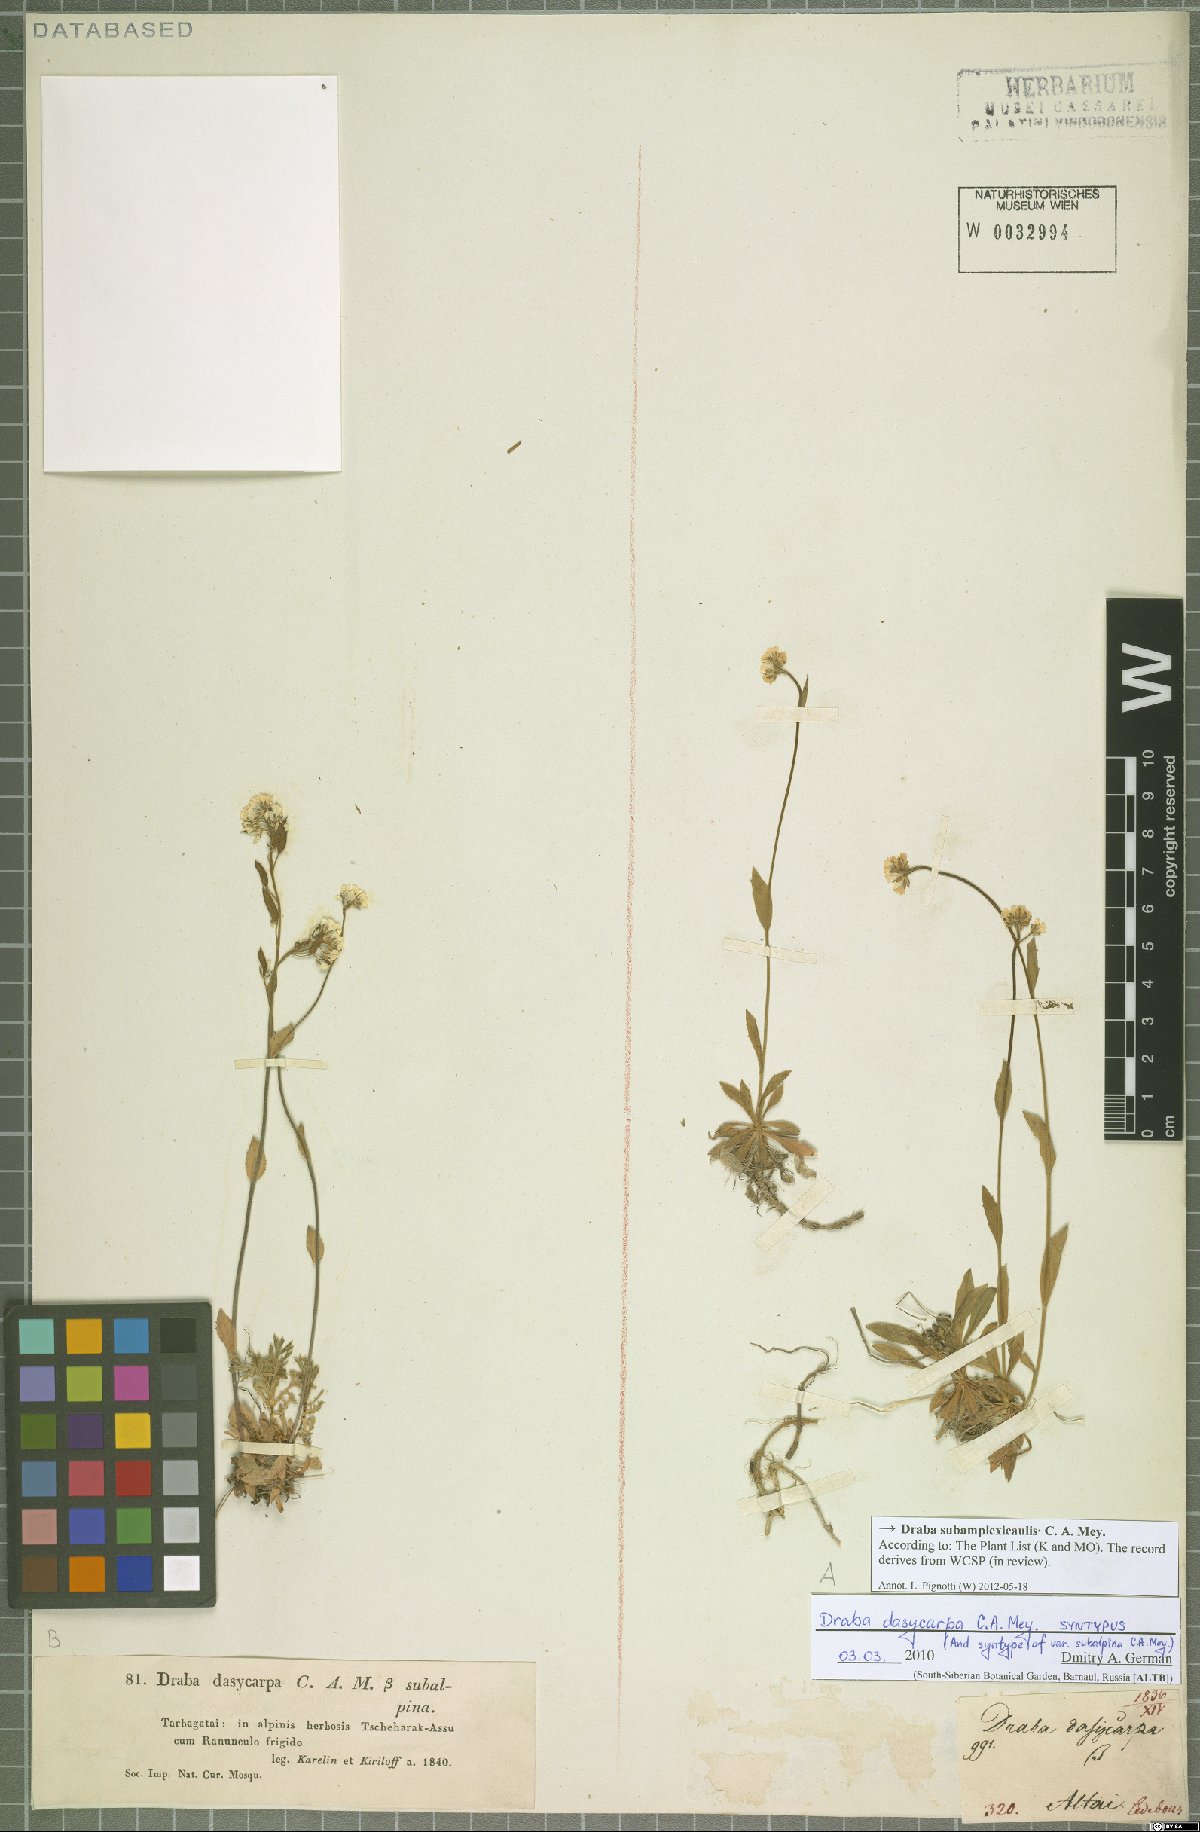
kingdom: Plantae
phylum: Tracheophyta
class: Magnoliopsida
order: Brassicales
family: Brassicaceae
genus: Draba
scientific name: Draba subamplexicaulis
